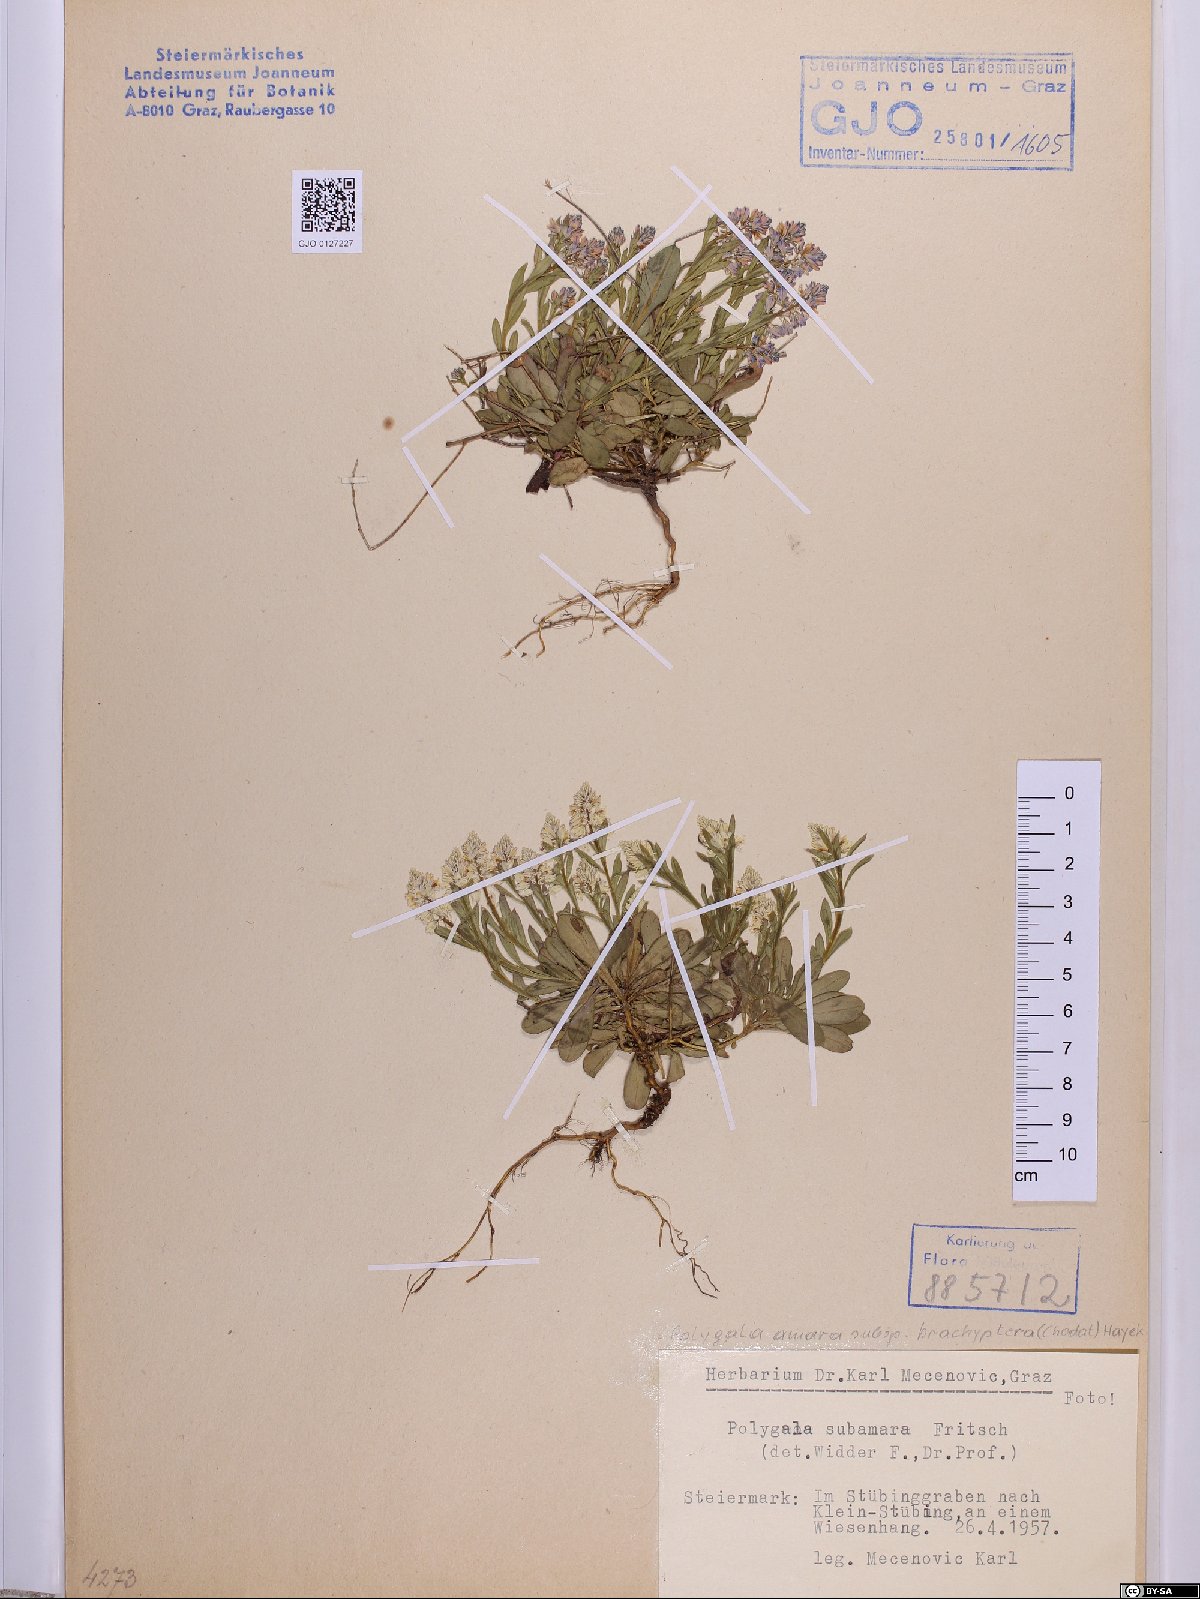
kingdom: Plantae
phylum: Tracheophyta
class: Magnoliopsida
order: Fabales
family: Polygalaceae
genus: Polygala
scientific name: Polygala amara
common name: Milkwort
